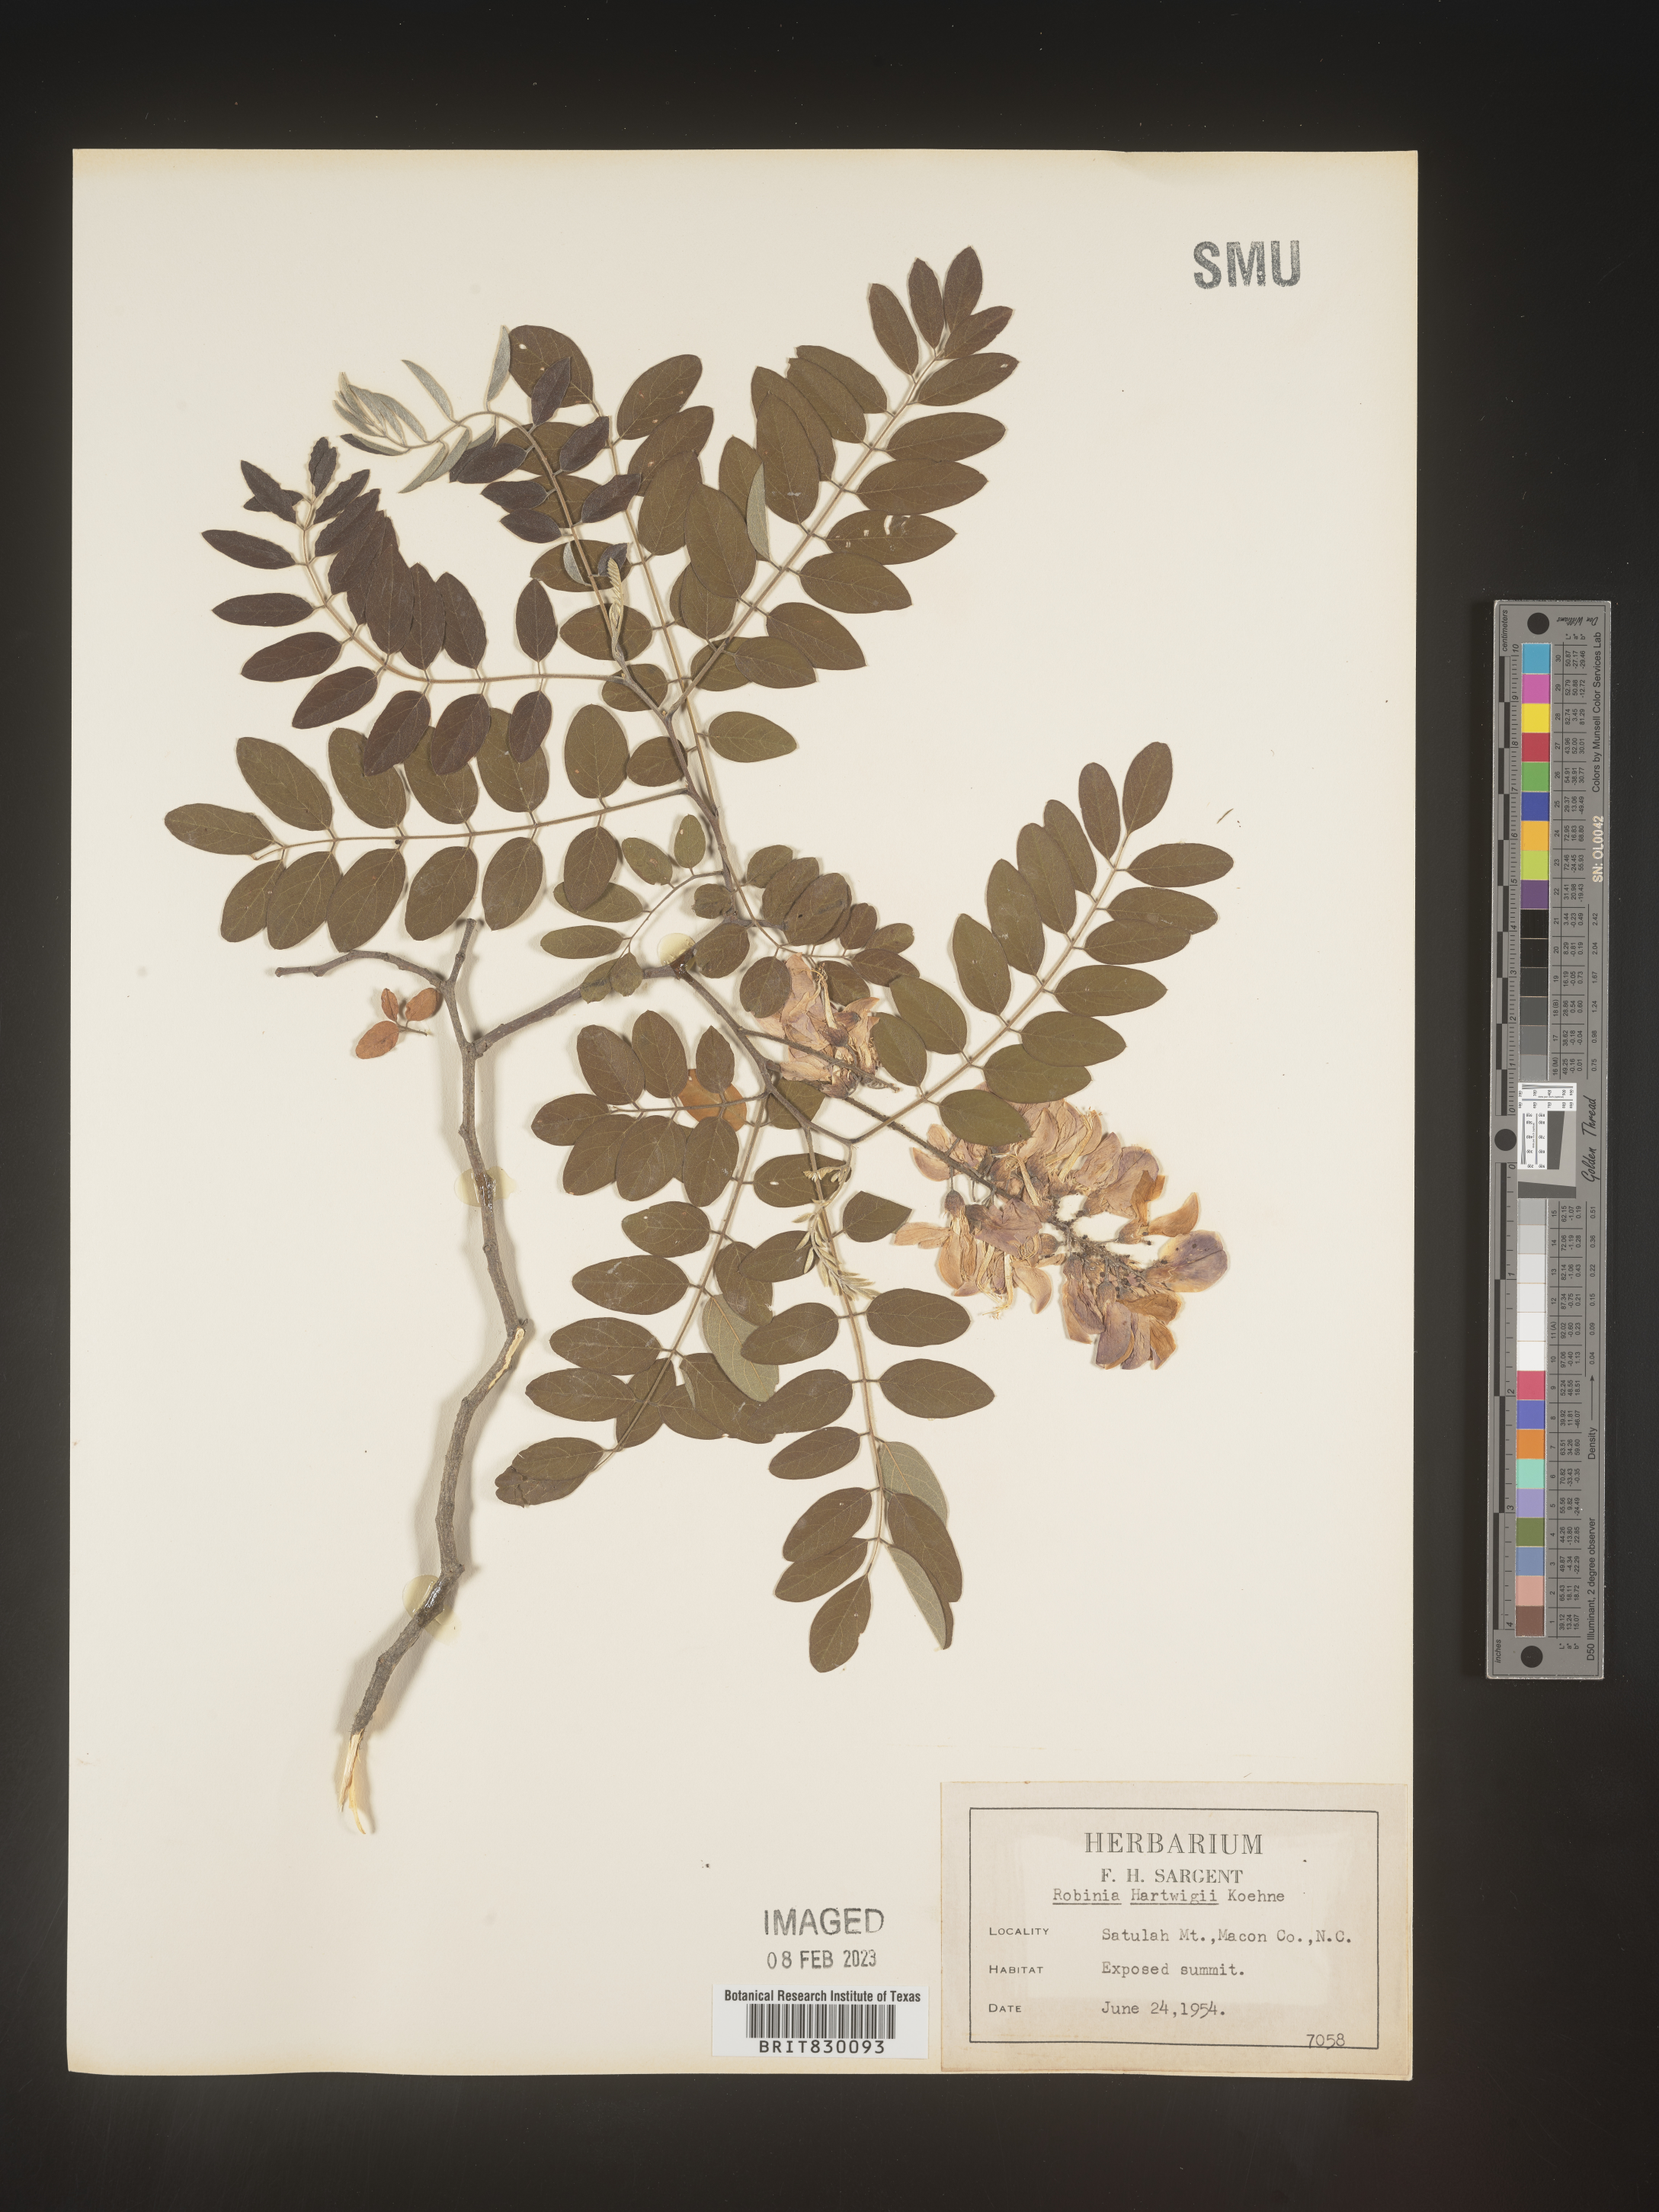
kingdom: Plantae
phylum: Tracheophyta
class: Magnoliopsida
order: Fabales
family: Fabaceae
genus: Robinia
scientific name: Robinia
